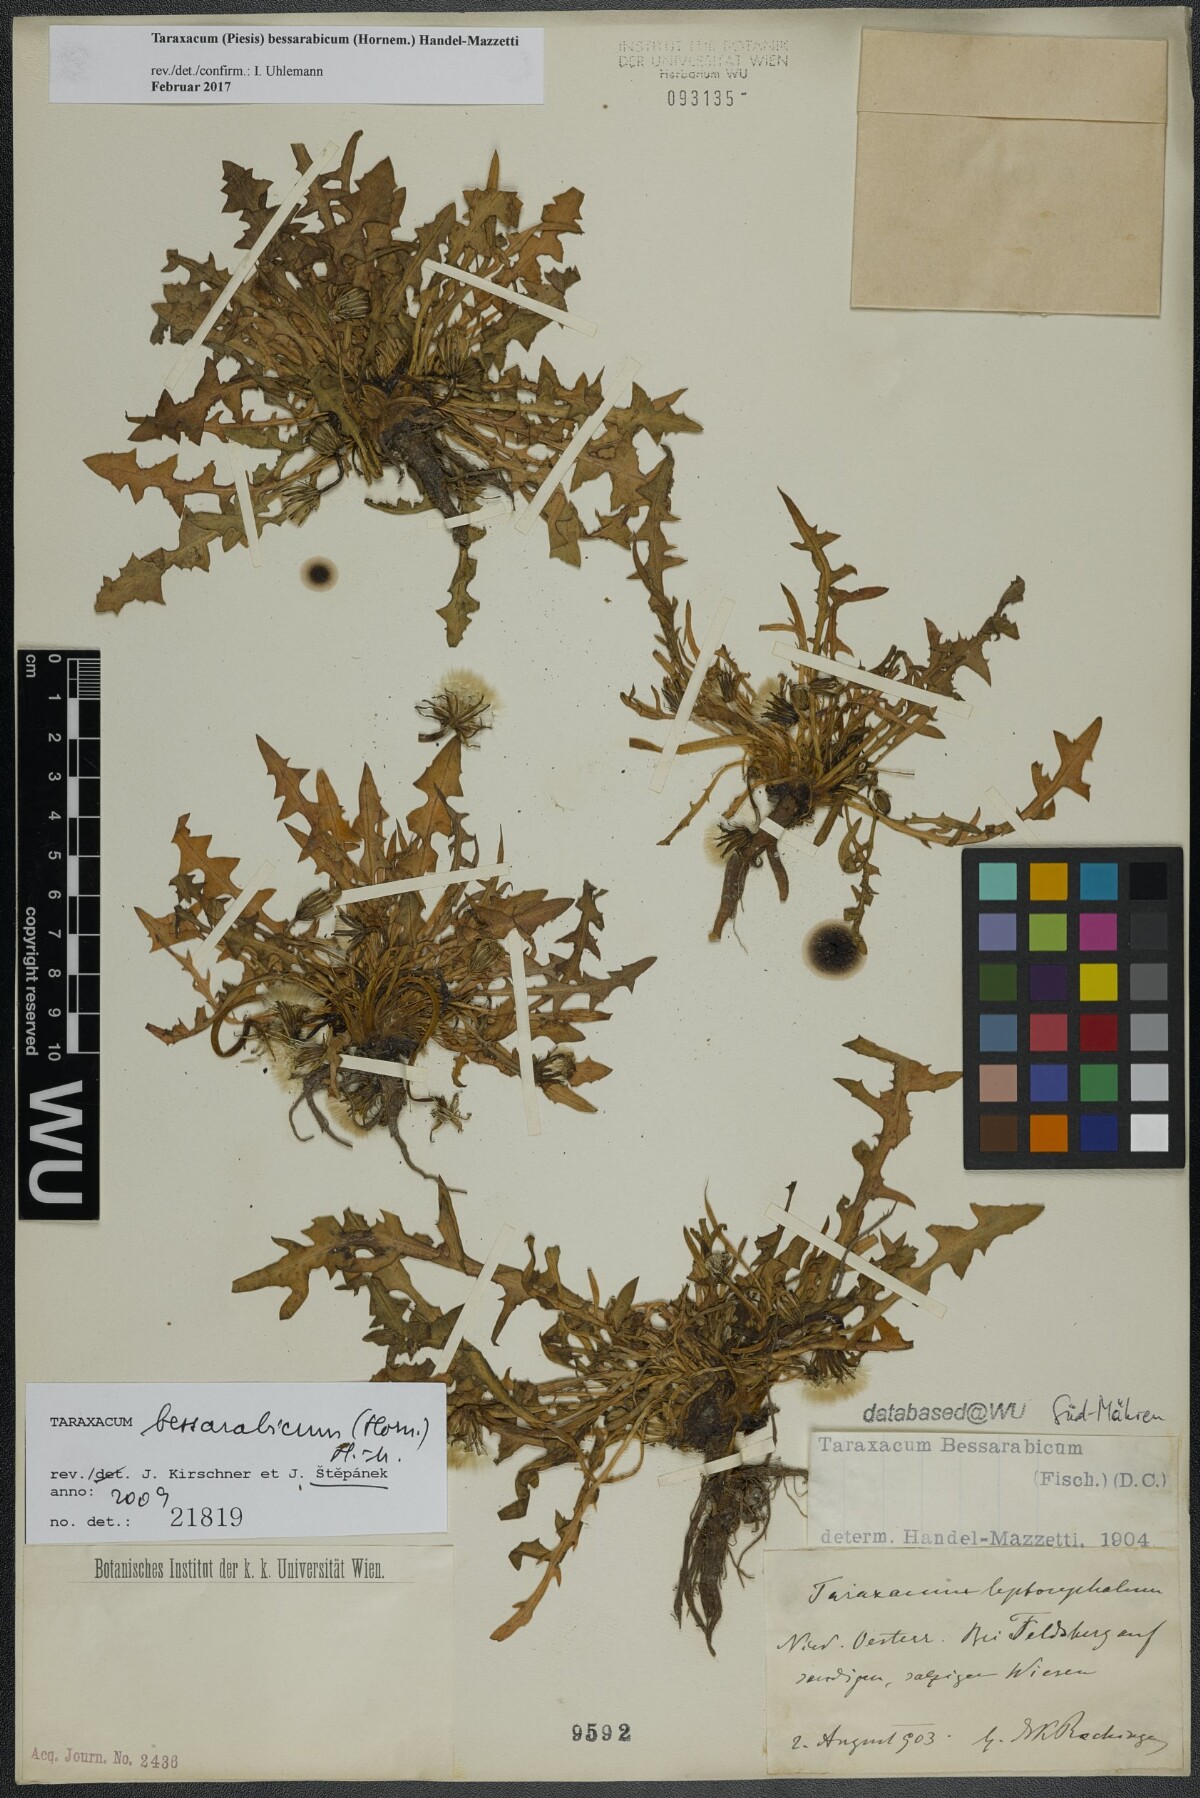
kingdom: Plantae
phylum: Tracheophyta
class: Magnoliopsida
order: Asterales
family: Asteraceae
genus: Taraxacum
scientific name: Taraxacum bessarabicum
